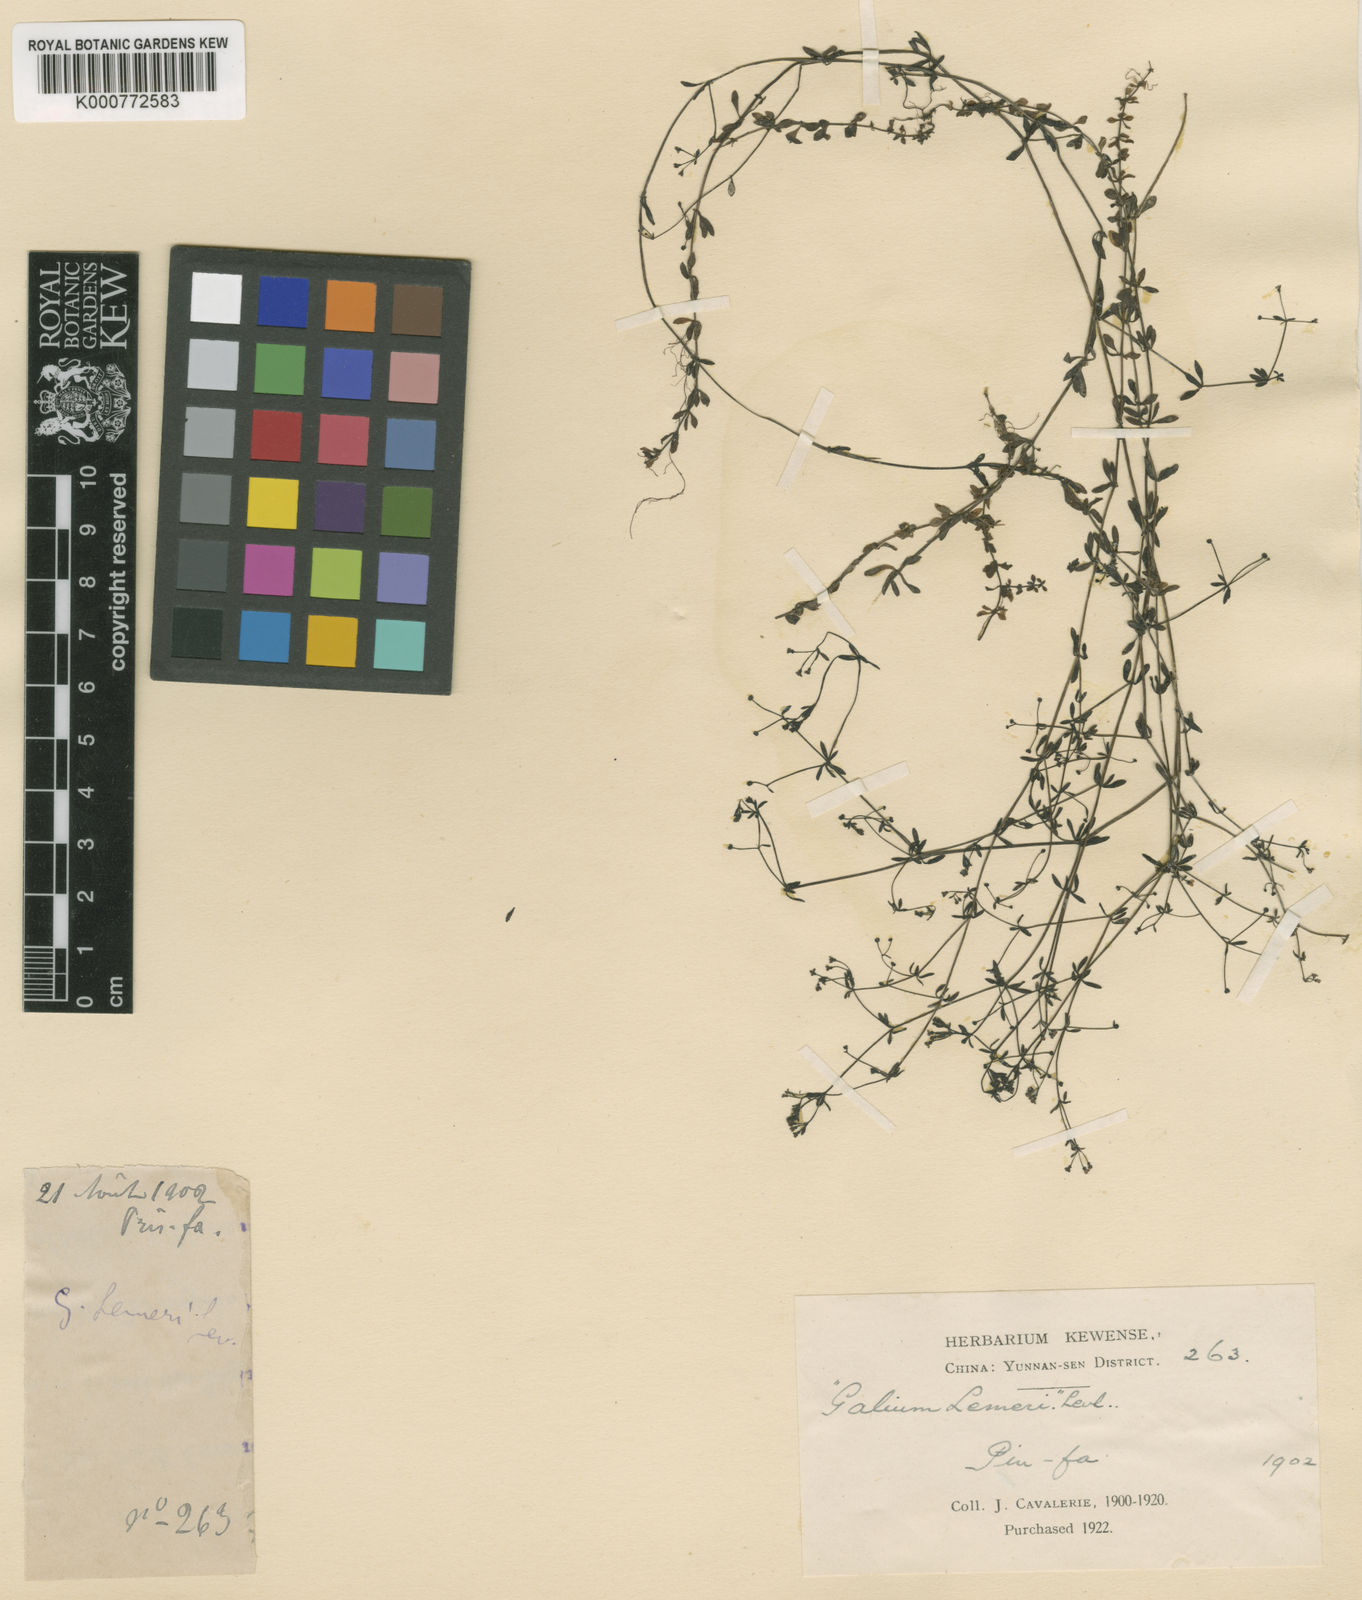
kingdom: Plantae
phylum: Tracheophyta
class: Magnoliopsida
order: Gentianales
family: Rubiaceae
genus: Galium
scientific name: Galium trifidum
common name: Small bedstraw
